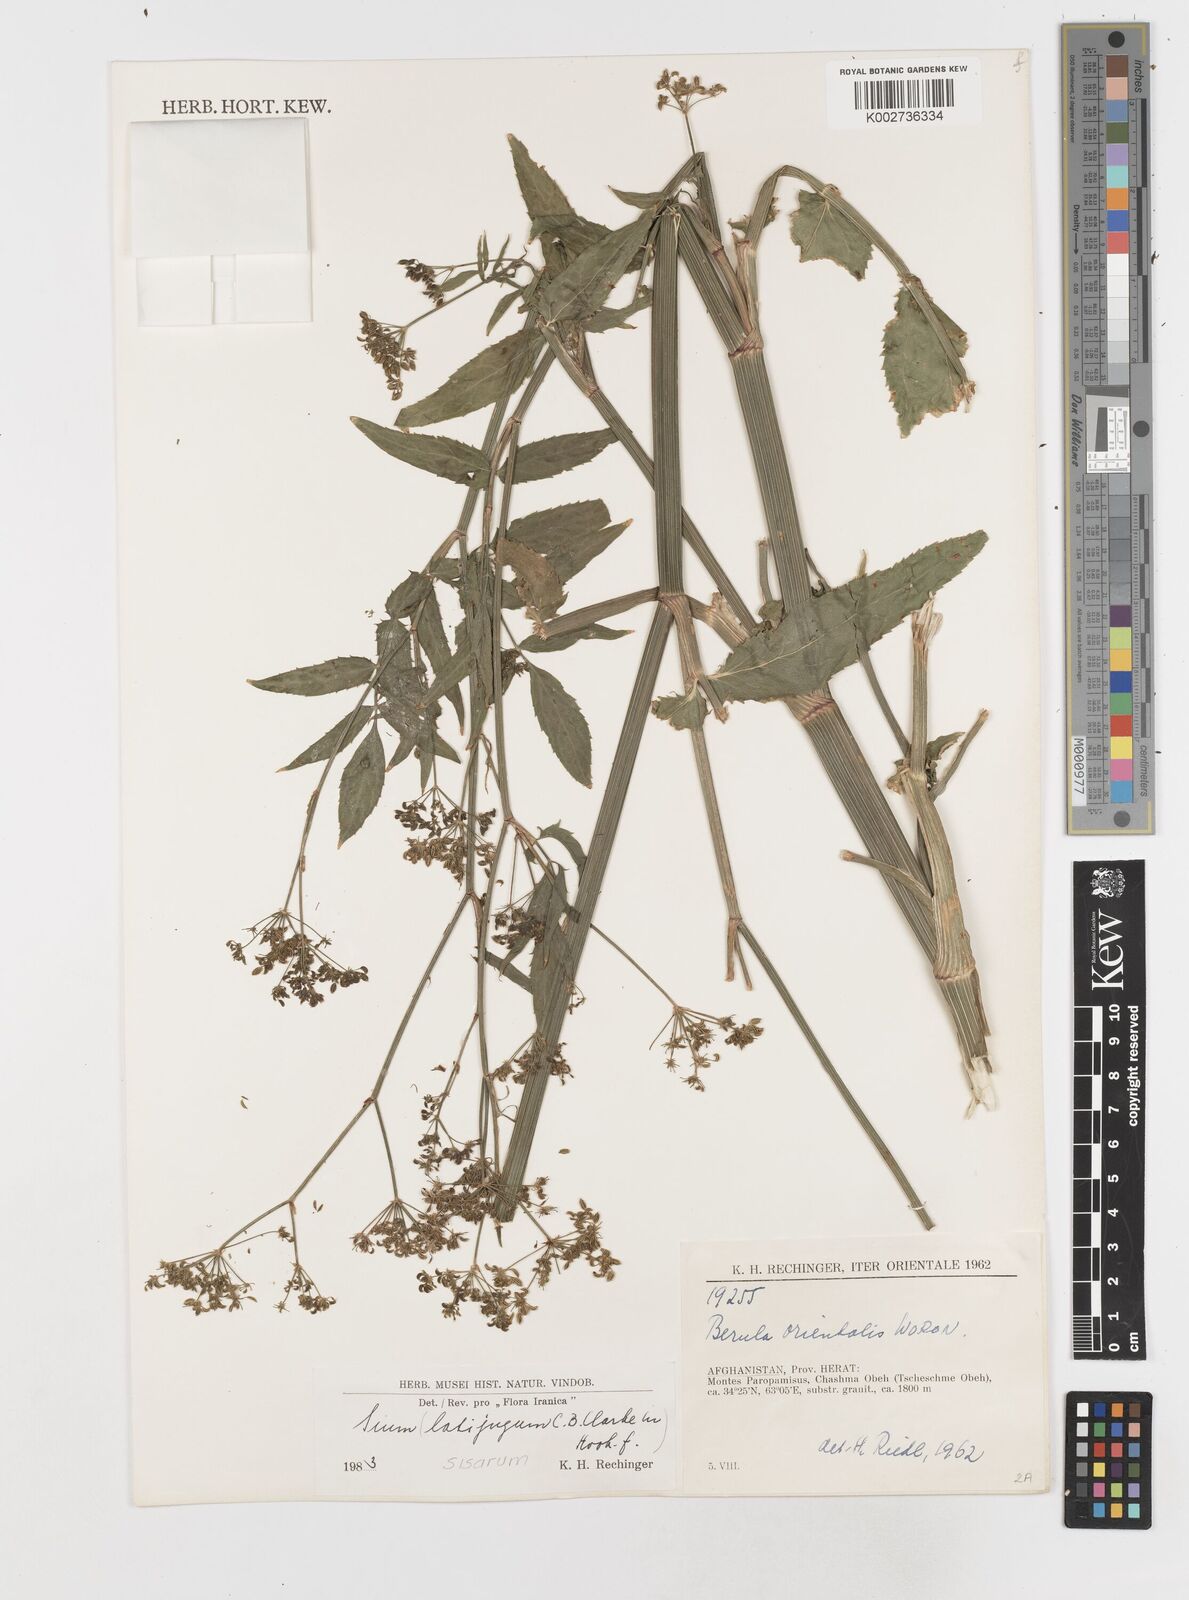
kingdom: Plantae
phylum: Tracheophyta
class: Magnoliopsida
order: Apiales
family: Apiaceae
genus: Sium
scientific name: Sium sisarum
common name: Skirret
